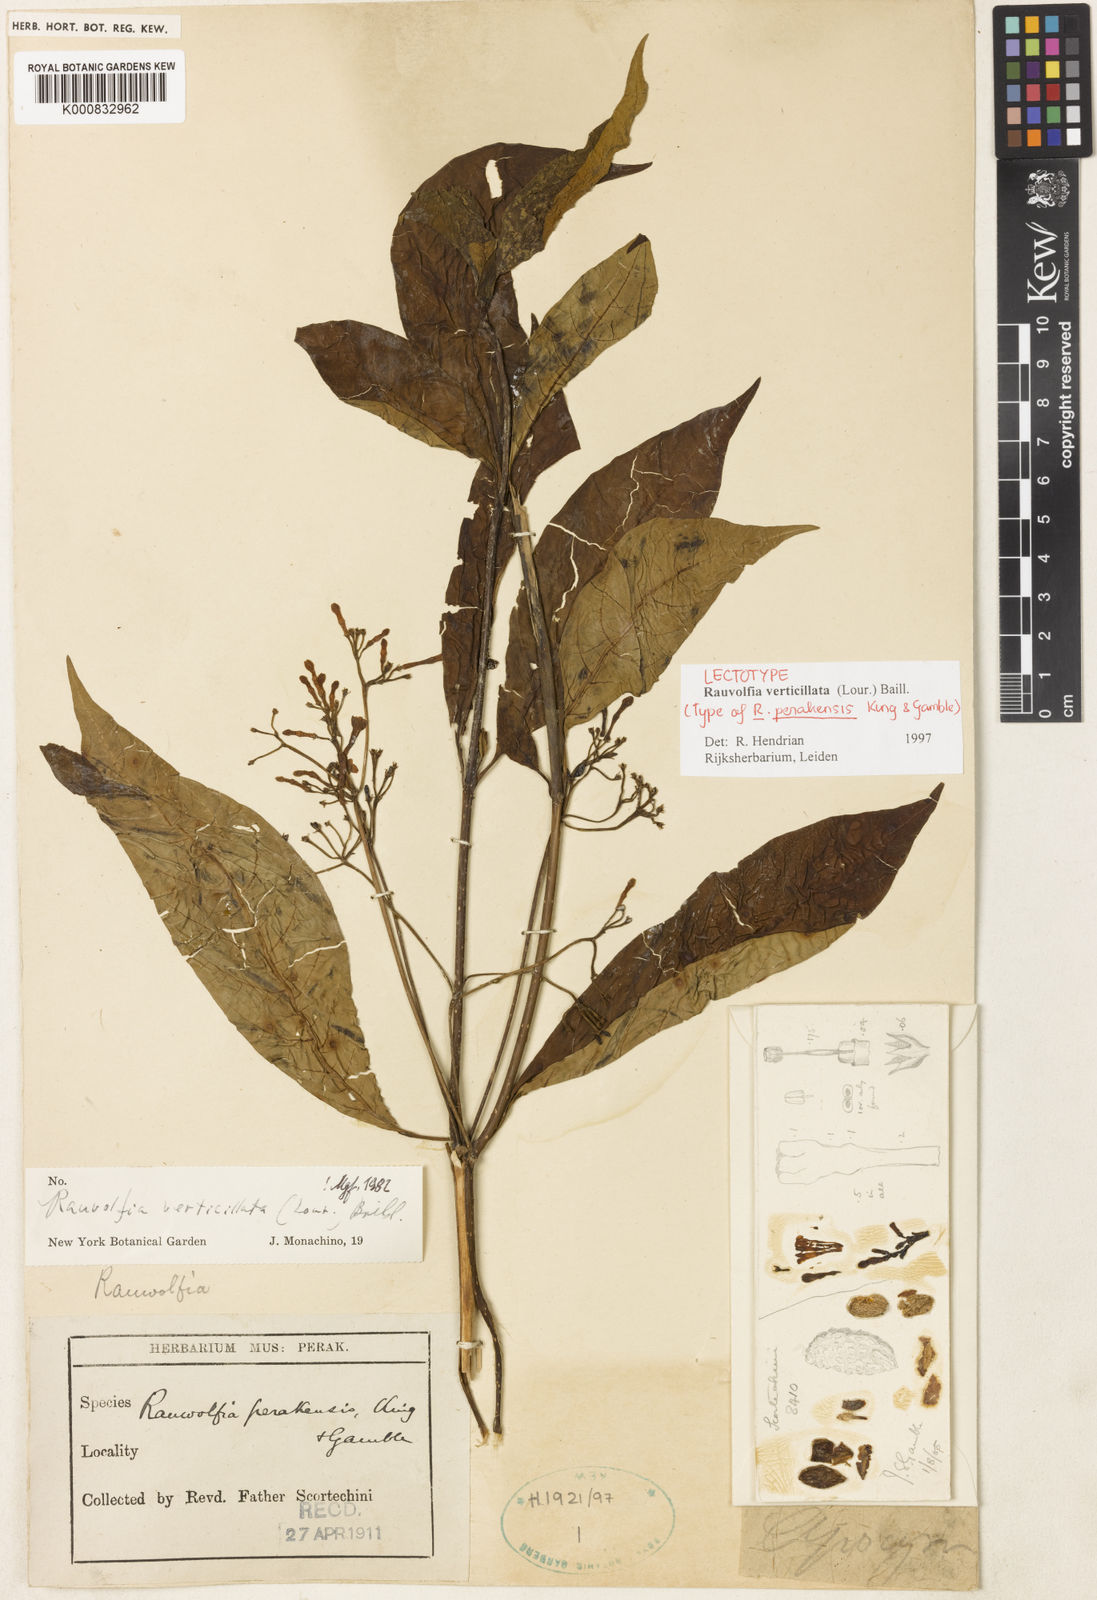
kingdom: Plantae
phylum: Tracheophyta
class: Magnoliopsida
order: Gentianales
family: Apocynaceae
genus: Rauvolfia
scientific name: Rauvolfia verticillata
